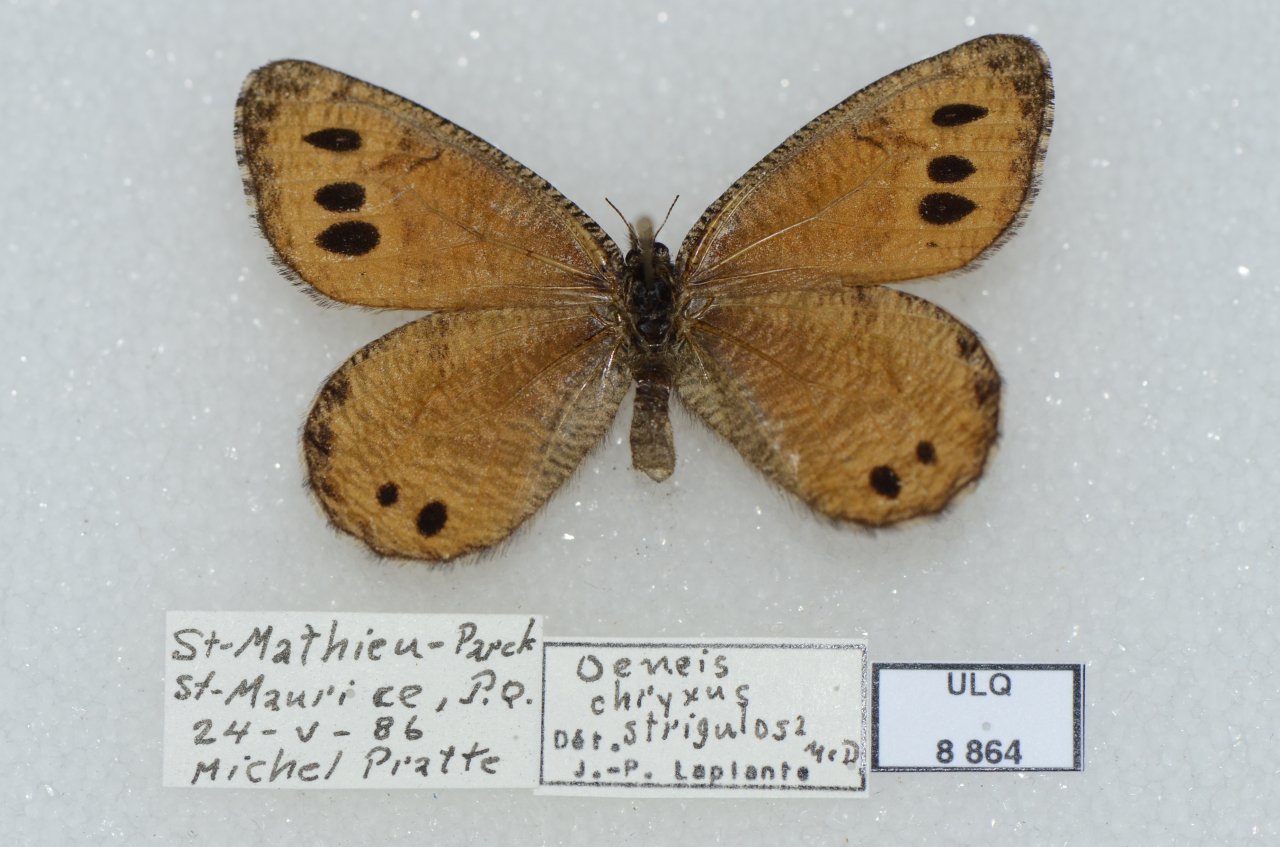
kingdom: Animalia
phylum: Arthropoda
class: Insecta
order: Lepidoptera
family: Nymphalidae
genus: Oeneis
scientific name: Oeneis chryxus
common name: Chryxus Arctic
